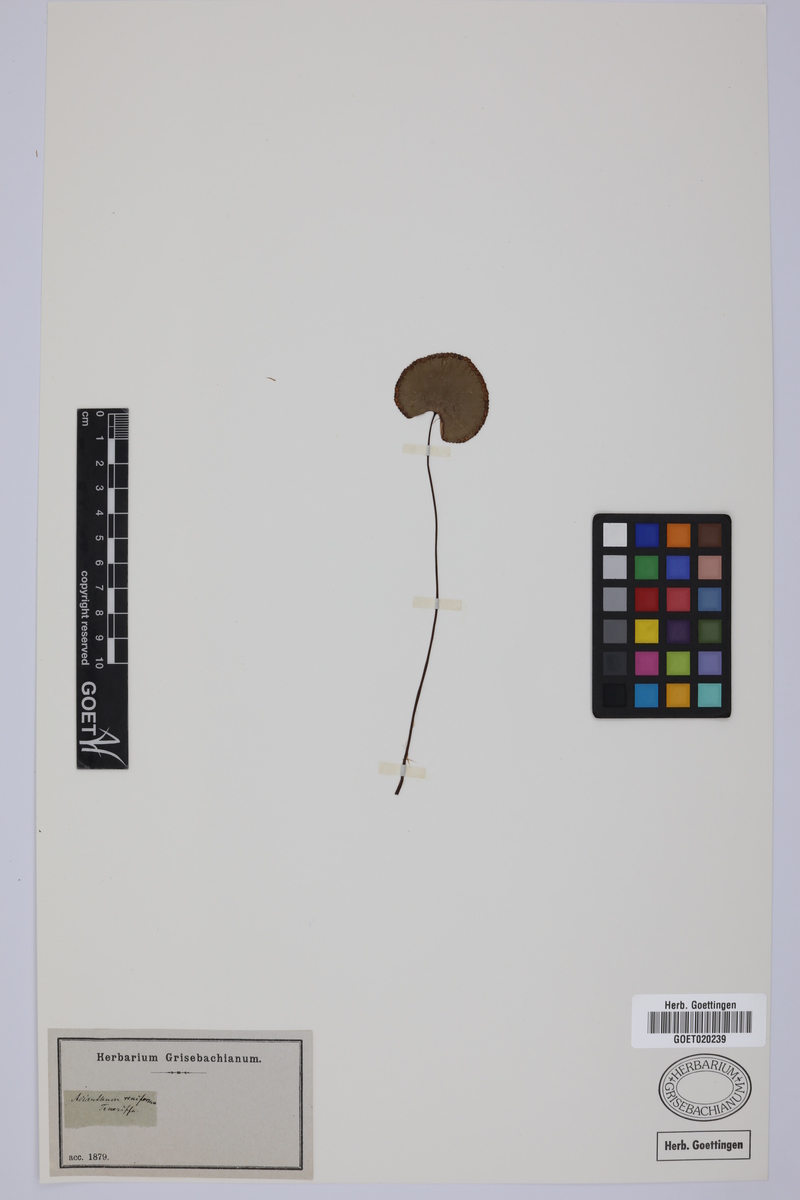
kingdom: Plantae
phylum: Tracheophyta
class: Polypodiopsida
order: Polypodiales
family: Pteridaceae
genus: Adiantum
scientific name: Adiantum reniforme
